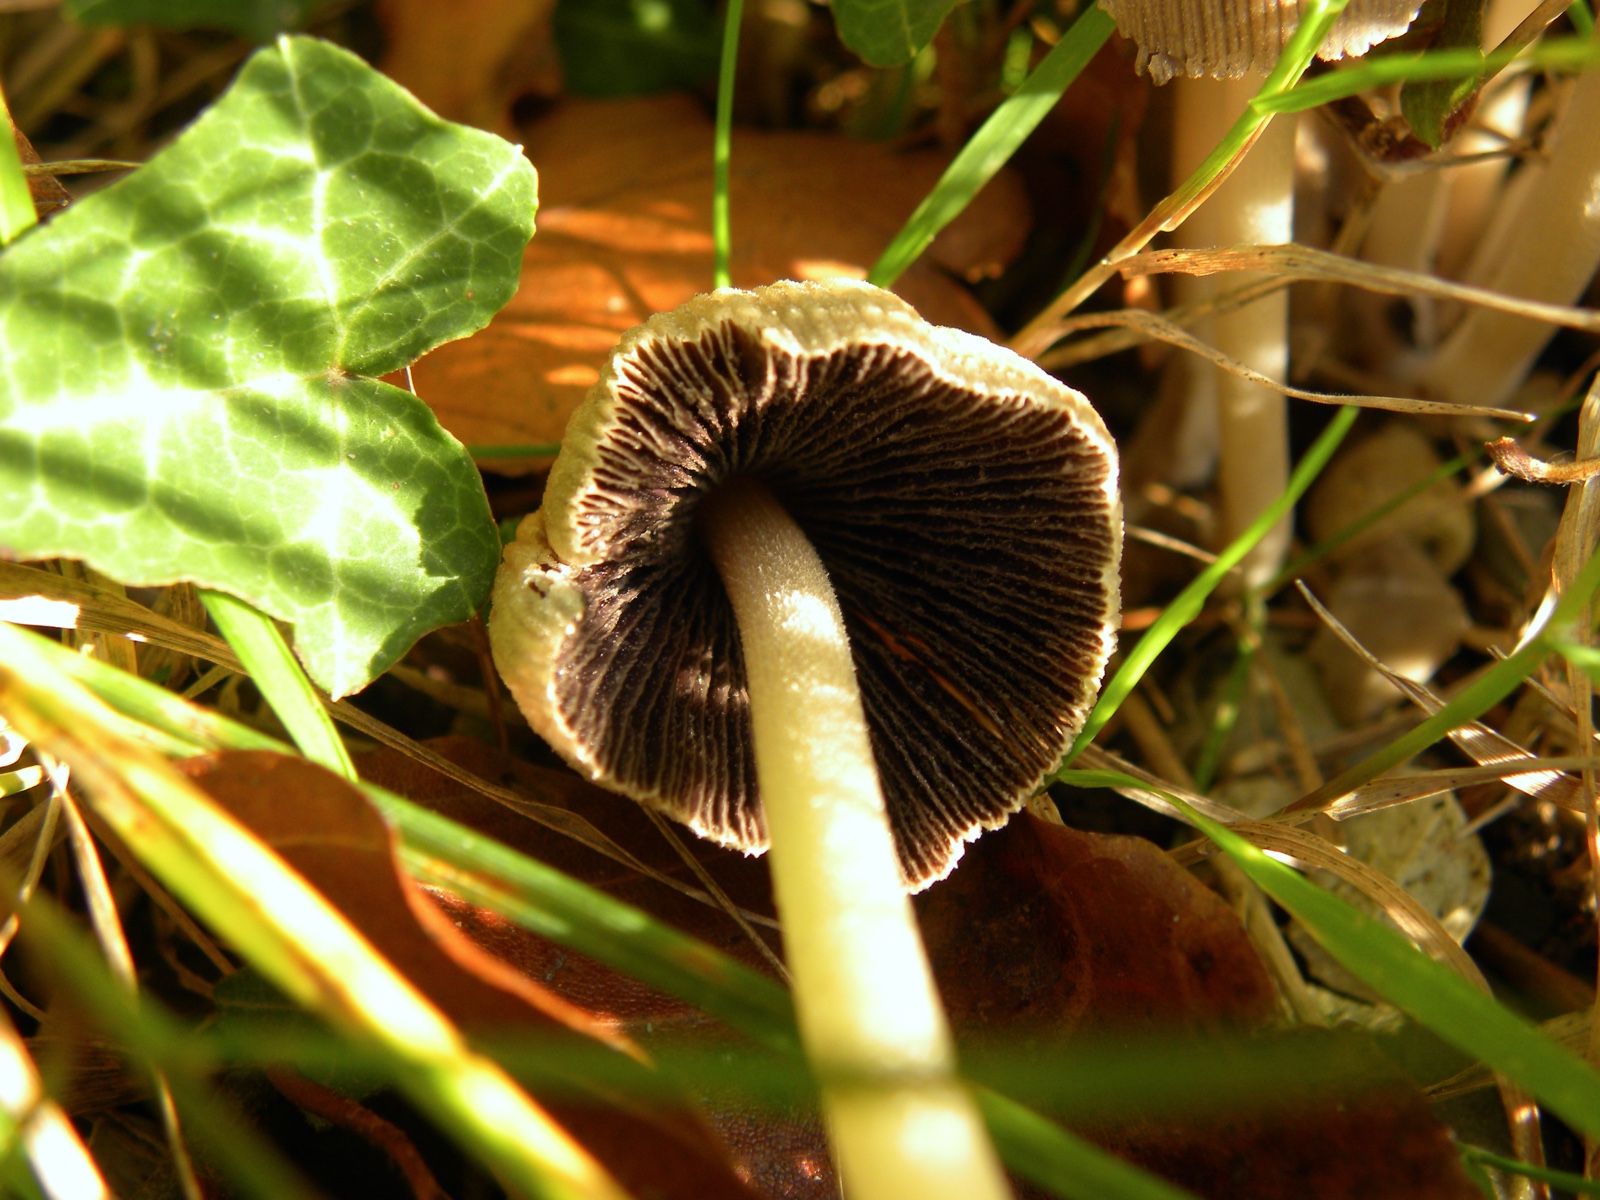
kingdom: Fungi
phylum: Basidiomycota
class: Agaricomycetes
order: Agaricales
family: Psathyrellaceae
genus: Coprinellus
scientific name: Coprinellus micaceus
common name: glimmer-blækhat
